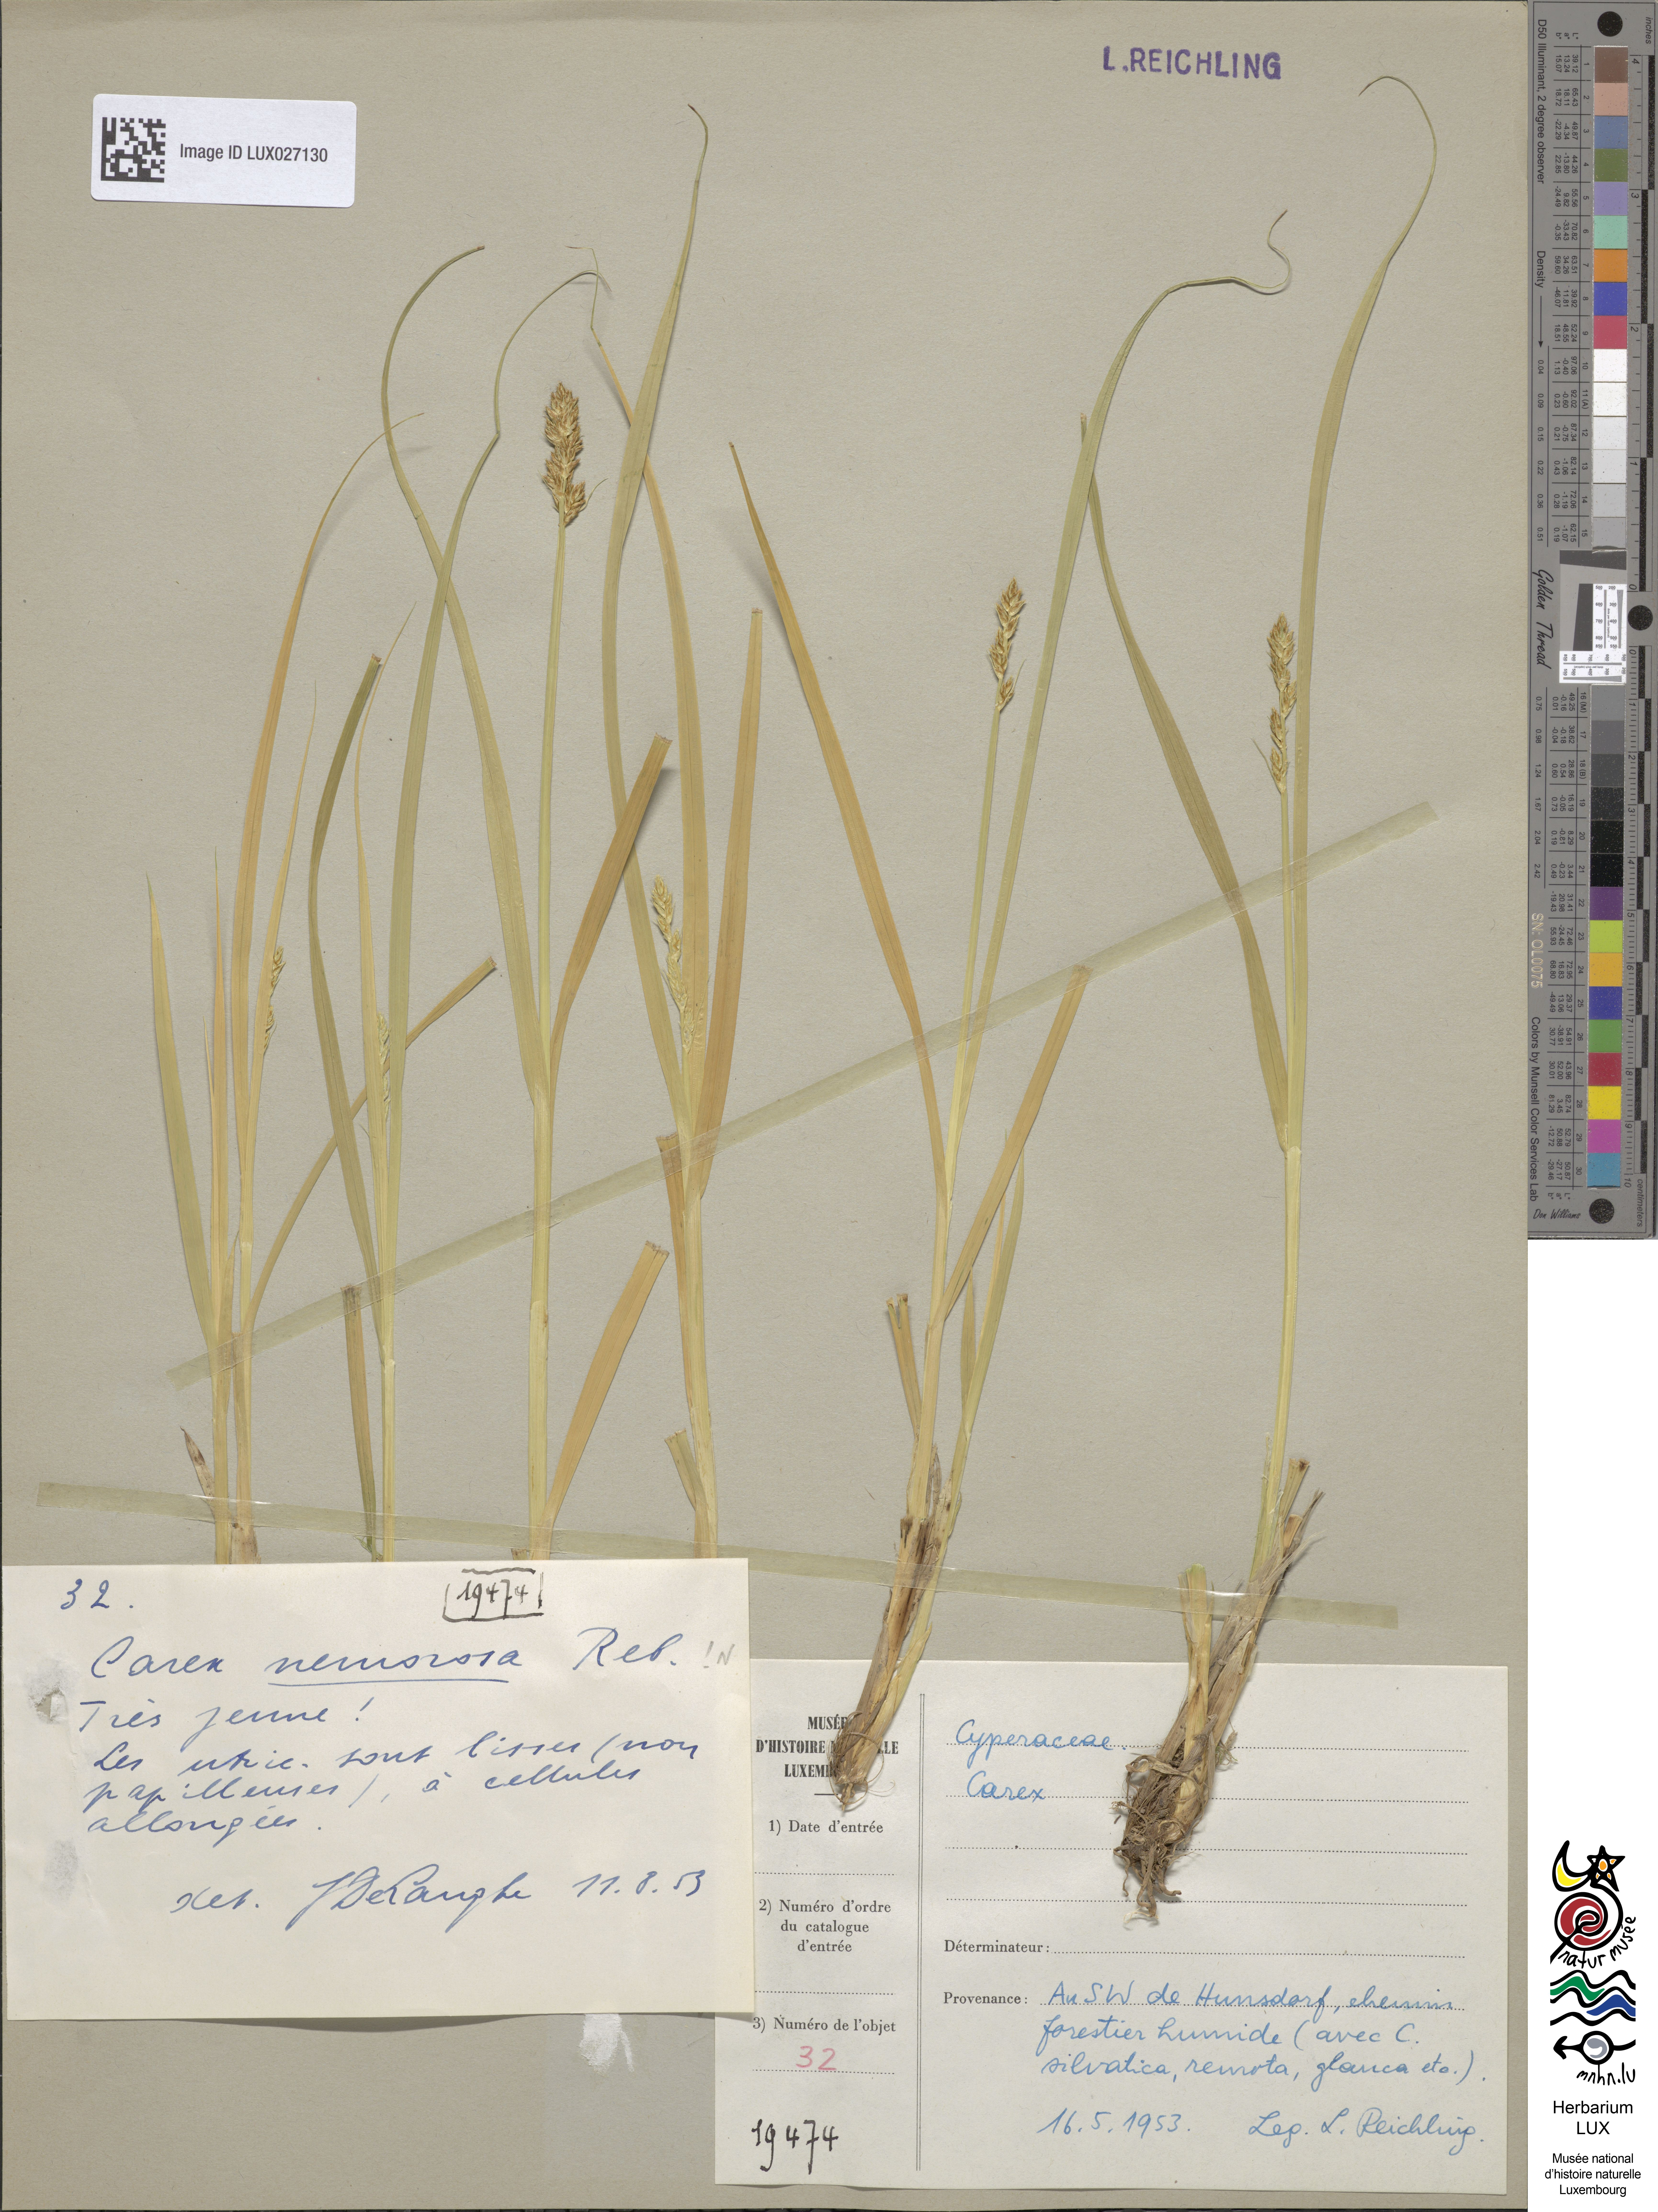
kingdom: Plantae
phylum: Tracheophyta
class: Liliopsida
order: Poales
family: Cyperaceae
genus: Carex
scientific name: Carex otrubae
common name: False fox-sedge
